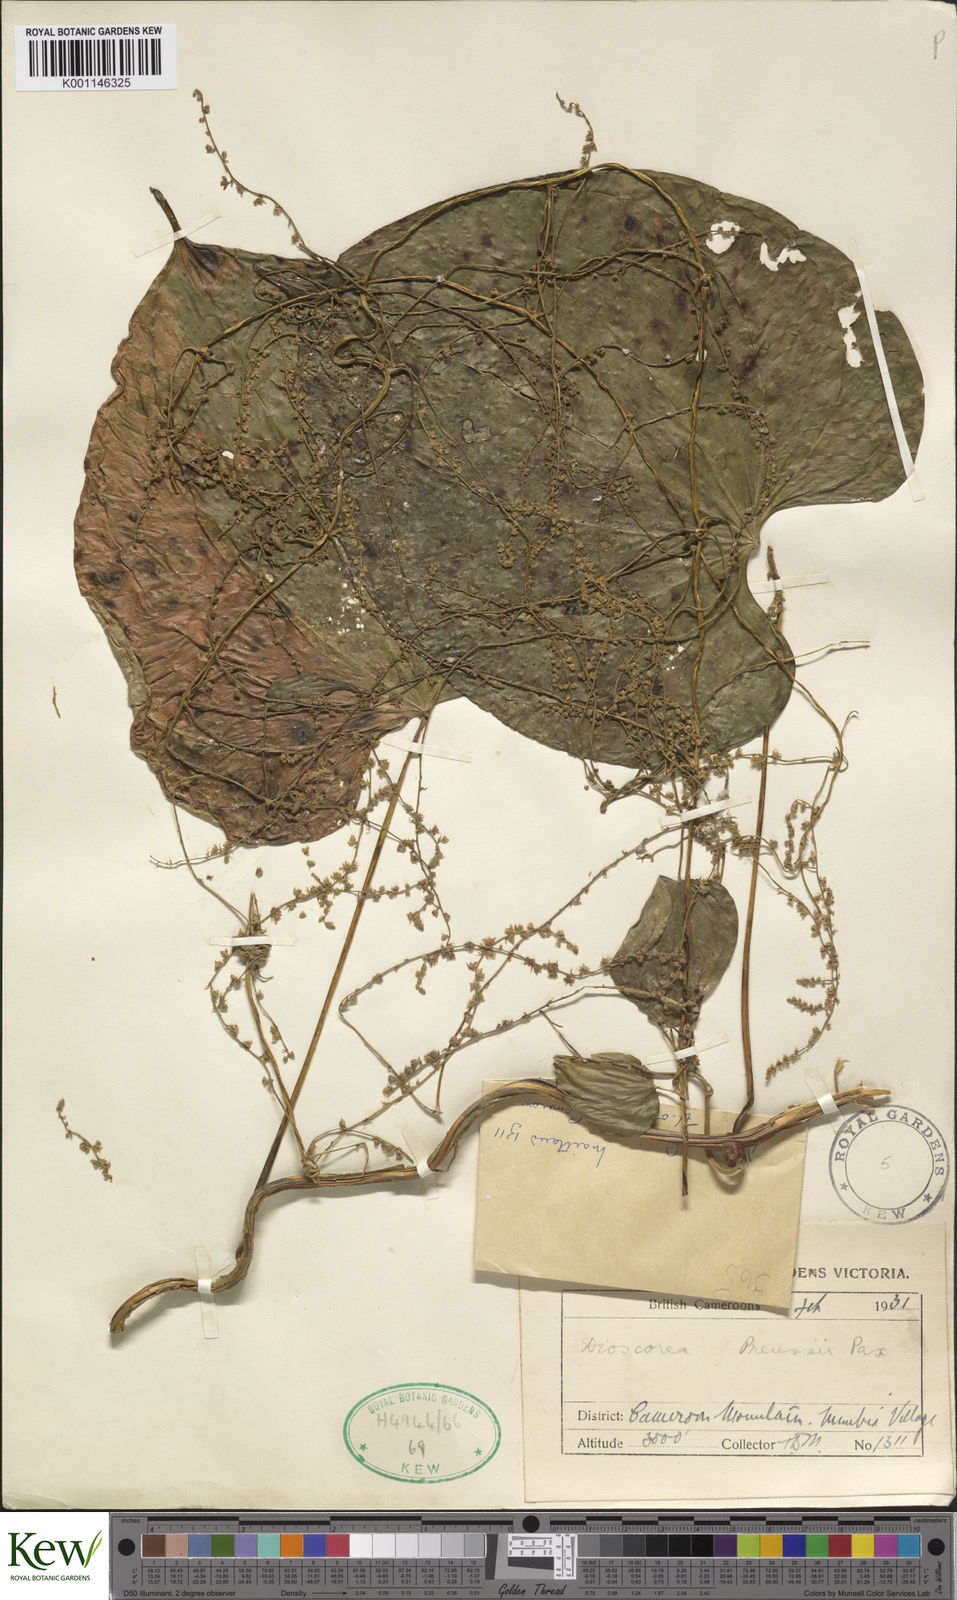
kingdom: Plantae
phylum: Tracheophyta
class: Liliopsida
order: Dioscoreales
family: Dioscoreaceae
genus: Dioscorea
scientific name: Dioscorea preussii
